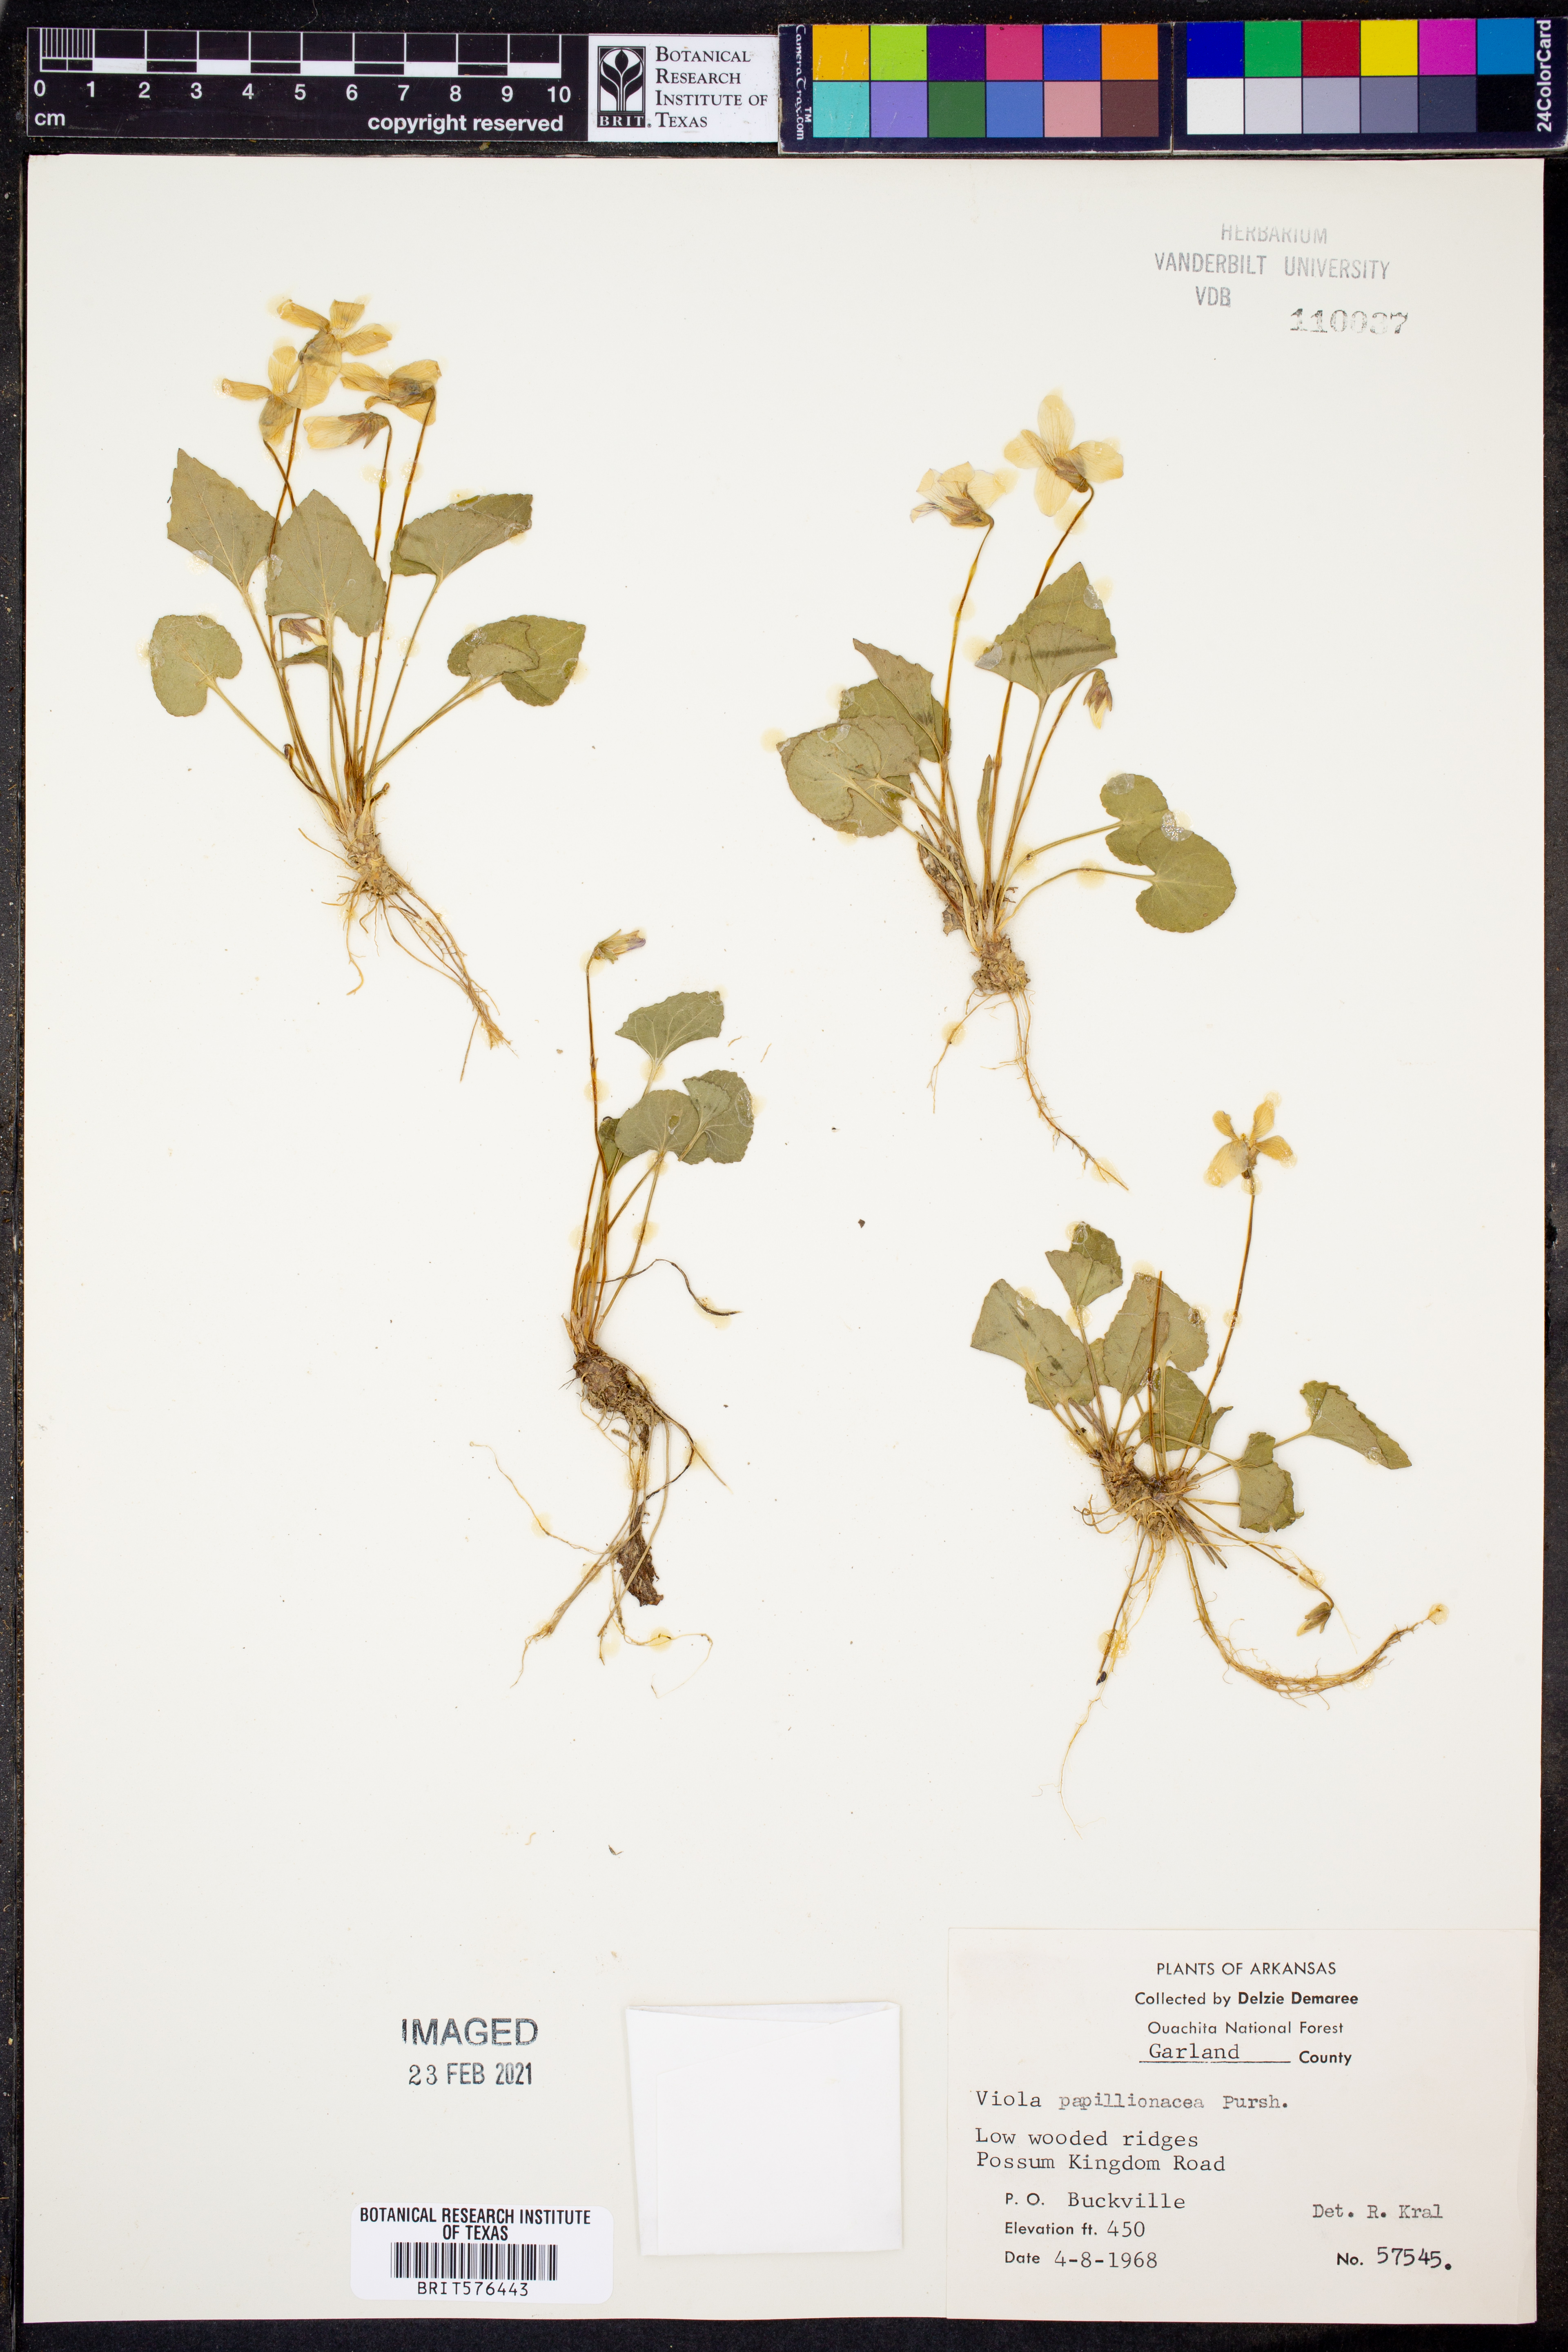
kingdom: Plantae
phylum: Tracheophyta
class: Magnoliopsida
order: Malpighiales
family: Violaceae
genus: Viola
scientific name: Viola sororia
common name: Dooryard violet
